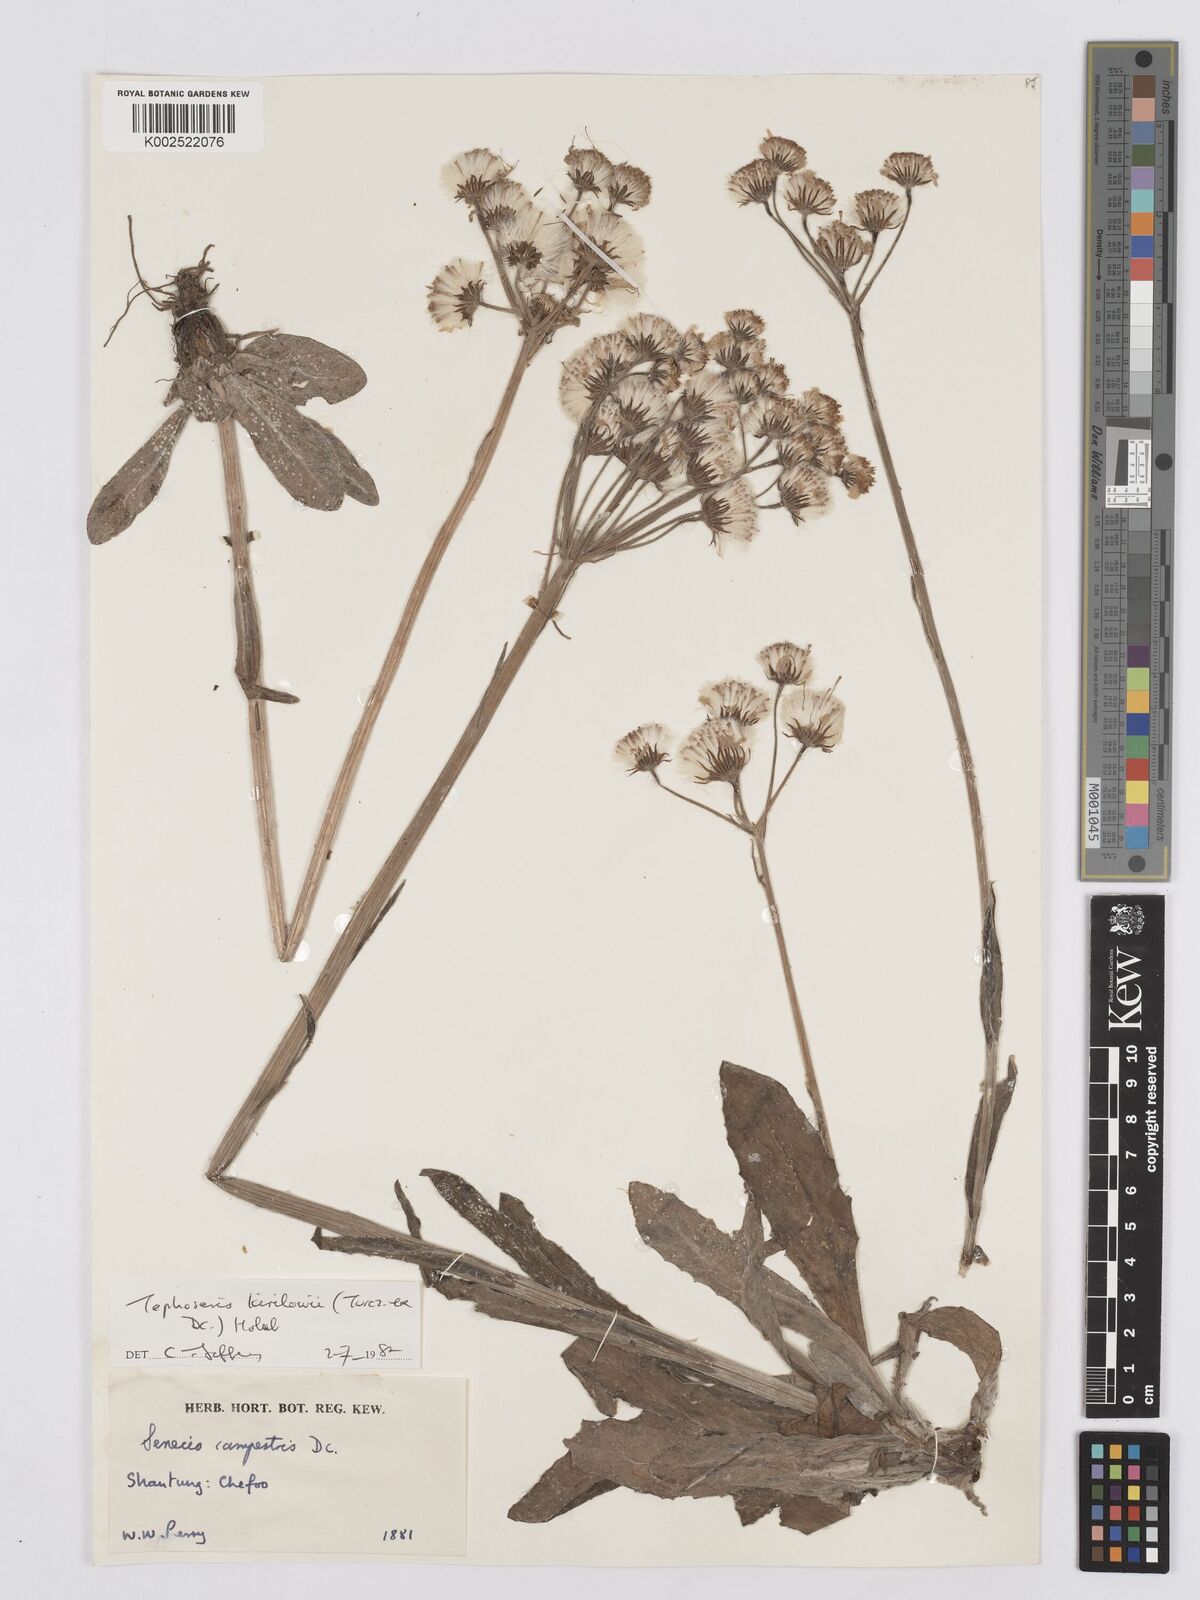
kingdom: Plantae
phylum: Tracheophyta
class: Magnoliopsida
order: Asterales
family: Asteraceae
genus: Tephroseris
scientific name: Tephroseris kirilowii
